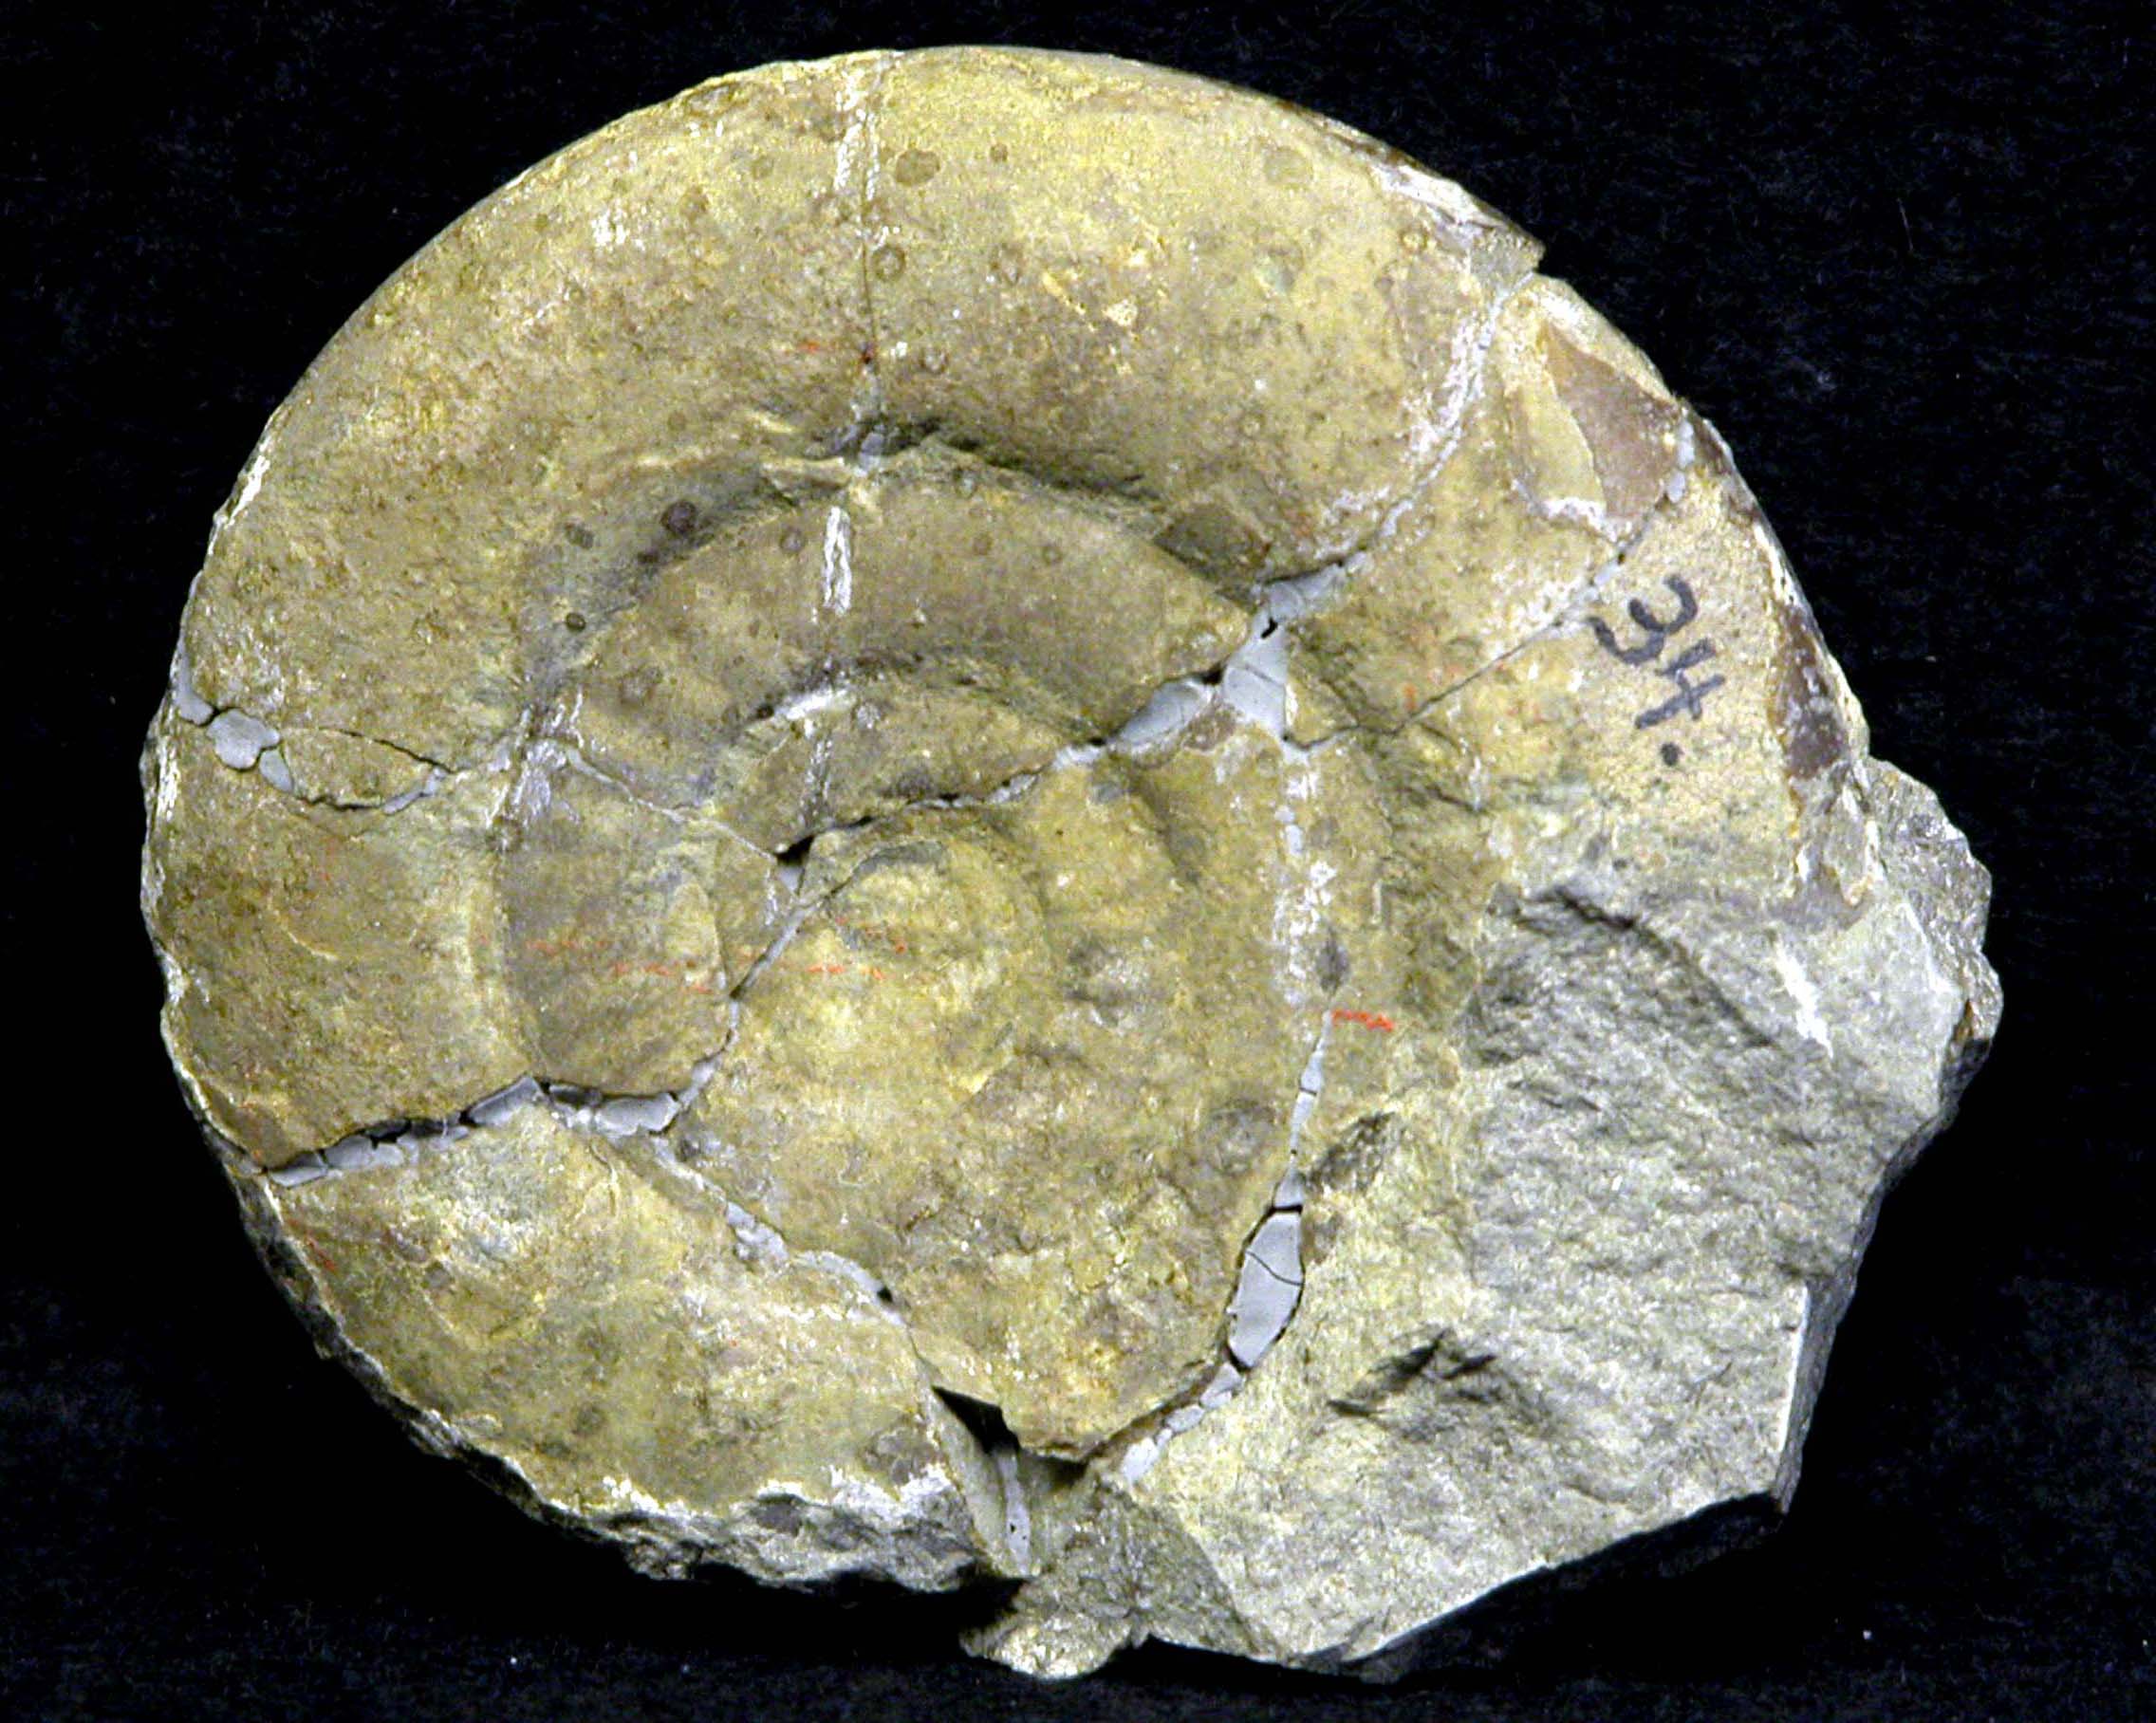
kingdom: Animalia
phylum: Mollusca
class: Cephalopoda
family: Psiloceratidae
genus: Psiloceras
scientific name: Psiloceras
